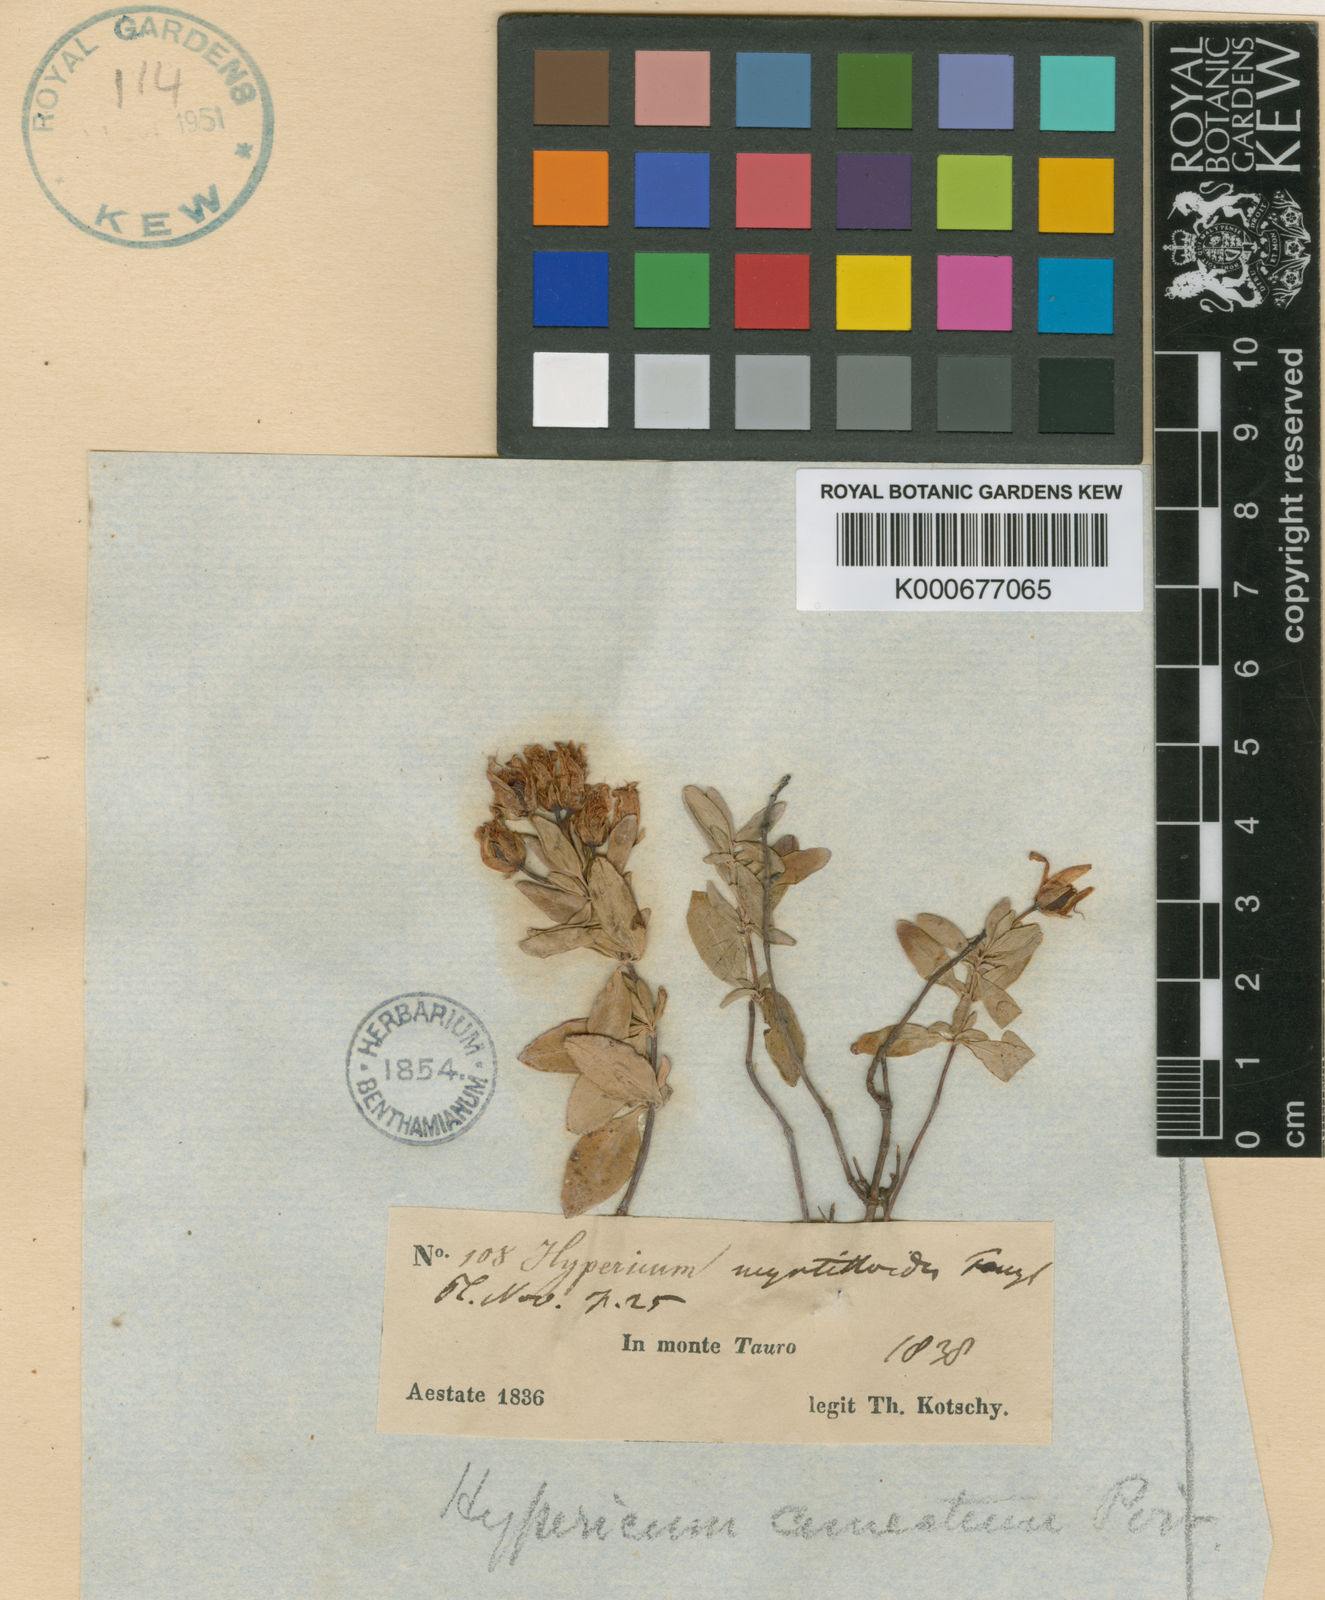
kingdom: Plantae
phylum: Tracheophyta
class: Magnoliopsida
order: Malpighiales
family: Hypericaceae
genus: Hypericum
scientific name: Hypericum elodeoides
